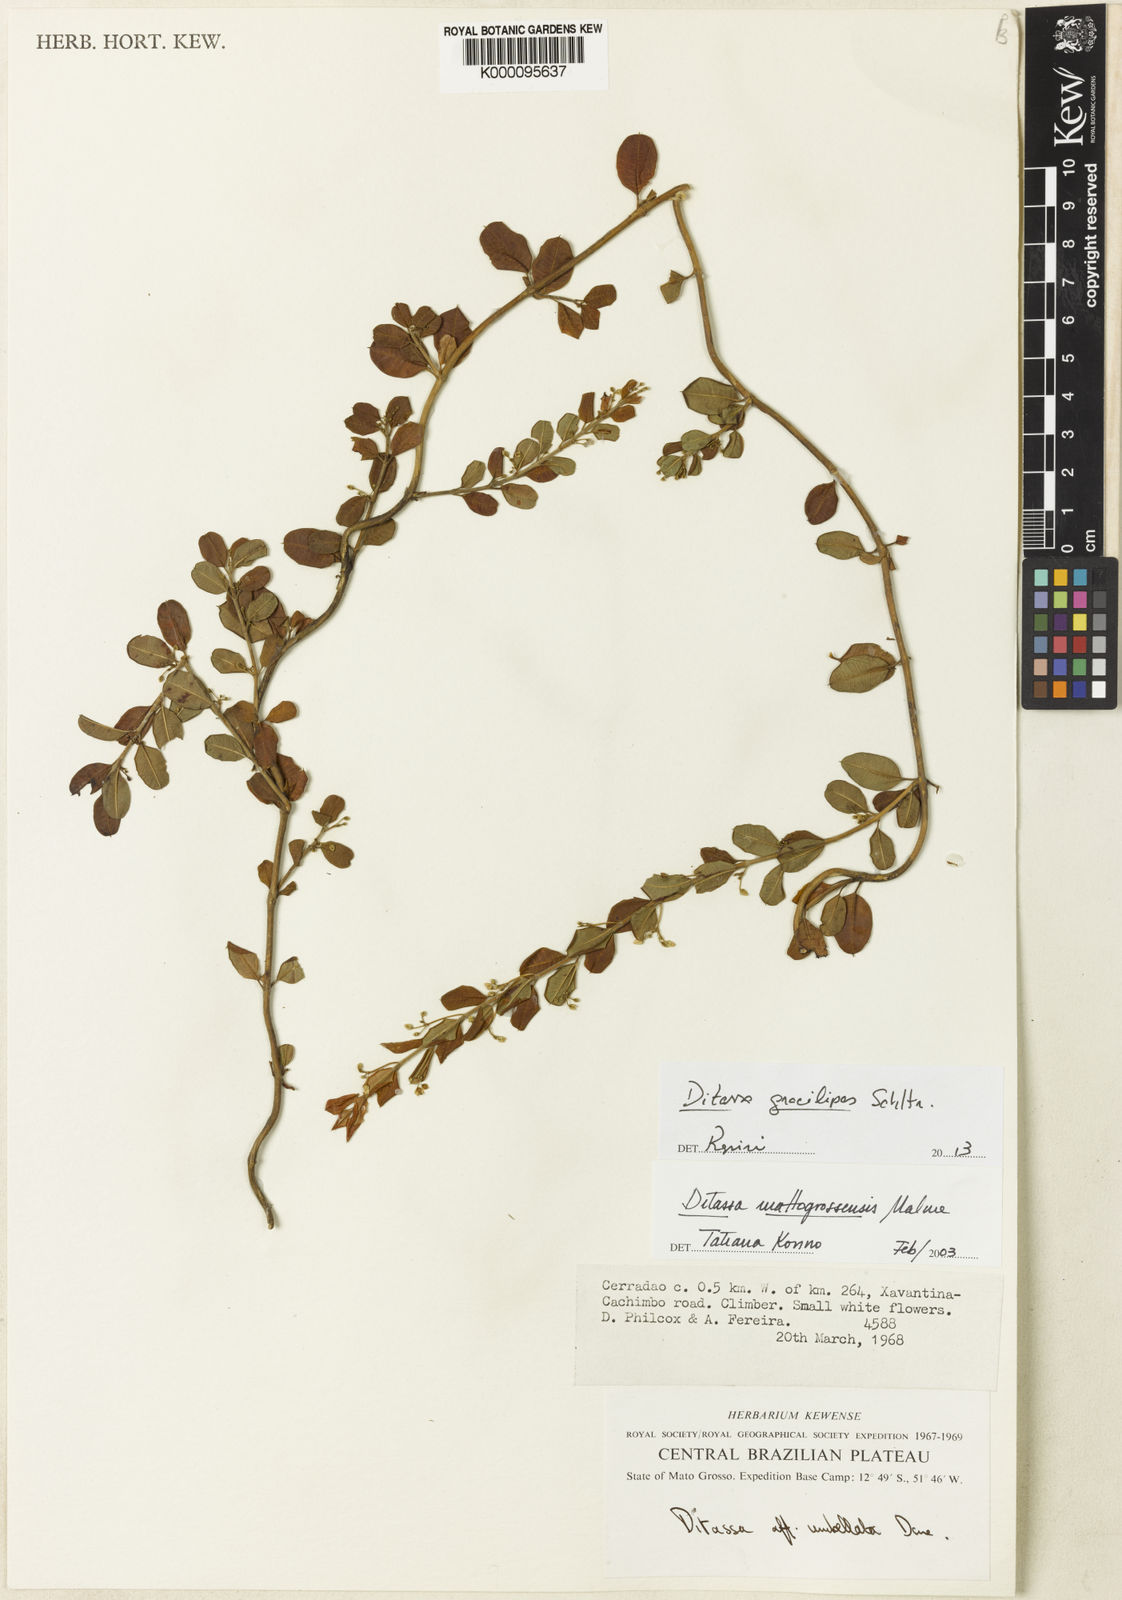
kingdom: Plantae
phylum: Tracheophyta
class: Magnoliopsida
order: Gentianales
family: Apocynaceae
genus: Ditassa
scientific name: Ditassa gracilipes
